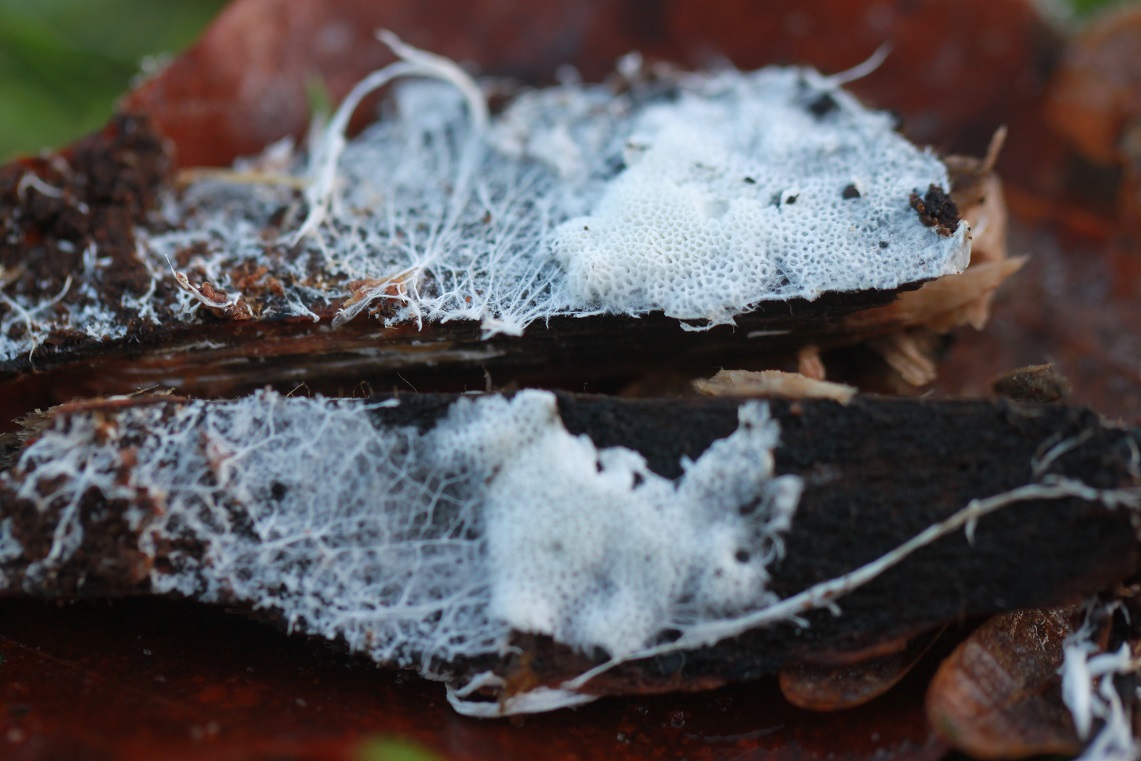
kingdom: Fungi
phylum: Basidiomycota
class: Agaricomycetes
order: Trechisporales
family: Sistotremataceae
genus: Trechispora
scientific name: Trechispora hymenocystis
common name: poret vathinde
